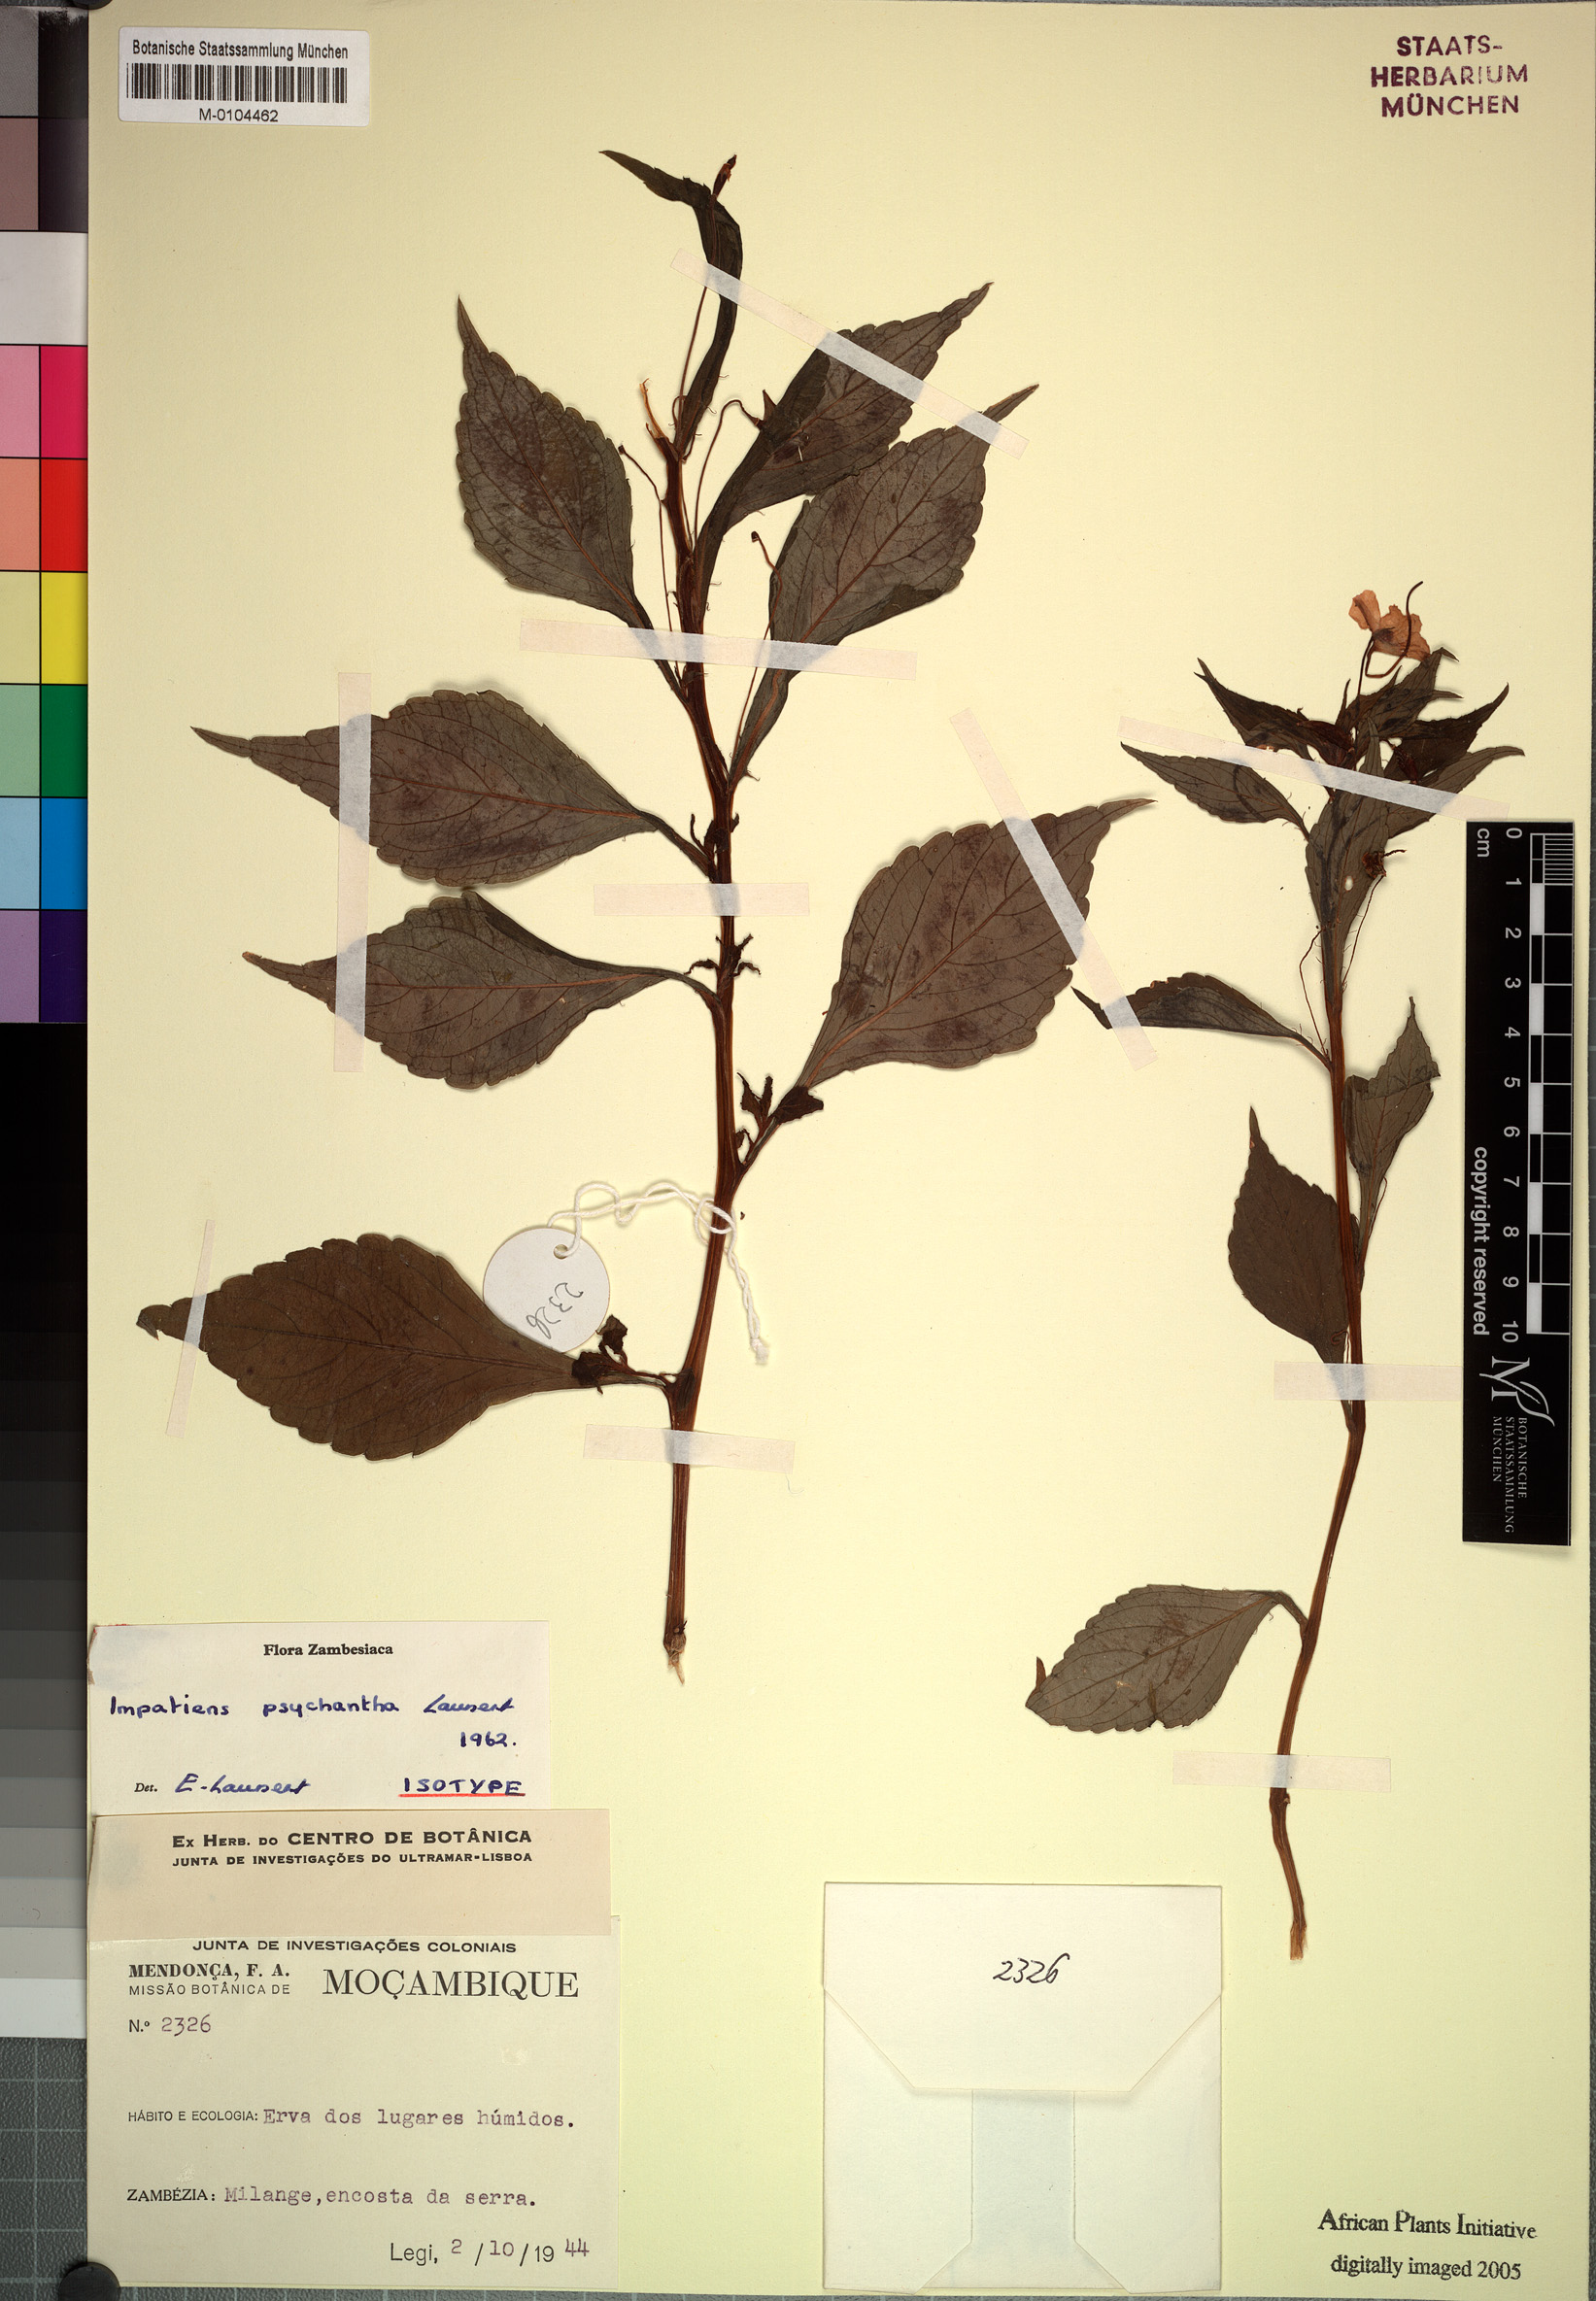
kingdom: Plantae
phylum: Tracheophyta
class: Magnoliopsida
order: Ericales
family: Balsaminaceae
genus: Impatiens
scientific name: Impatiens oreocallis
